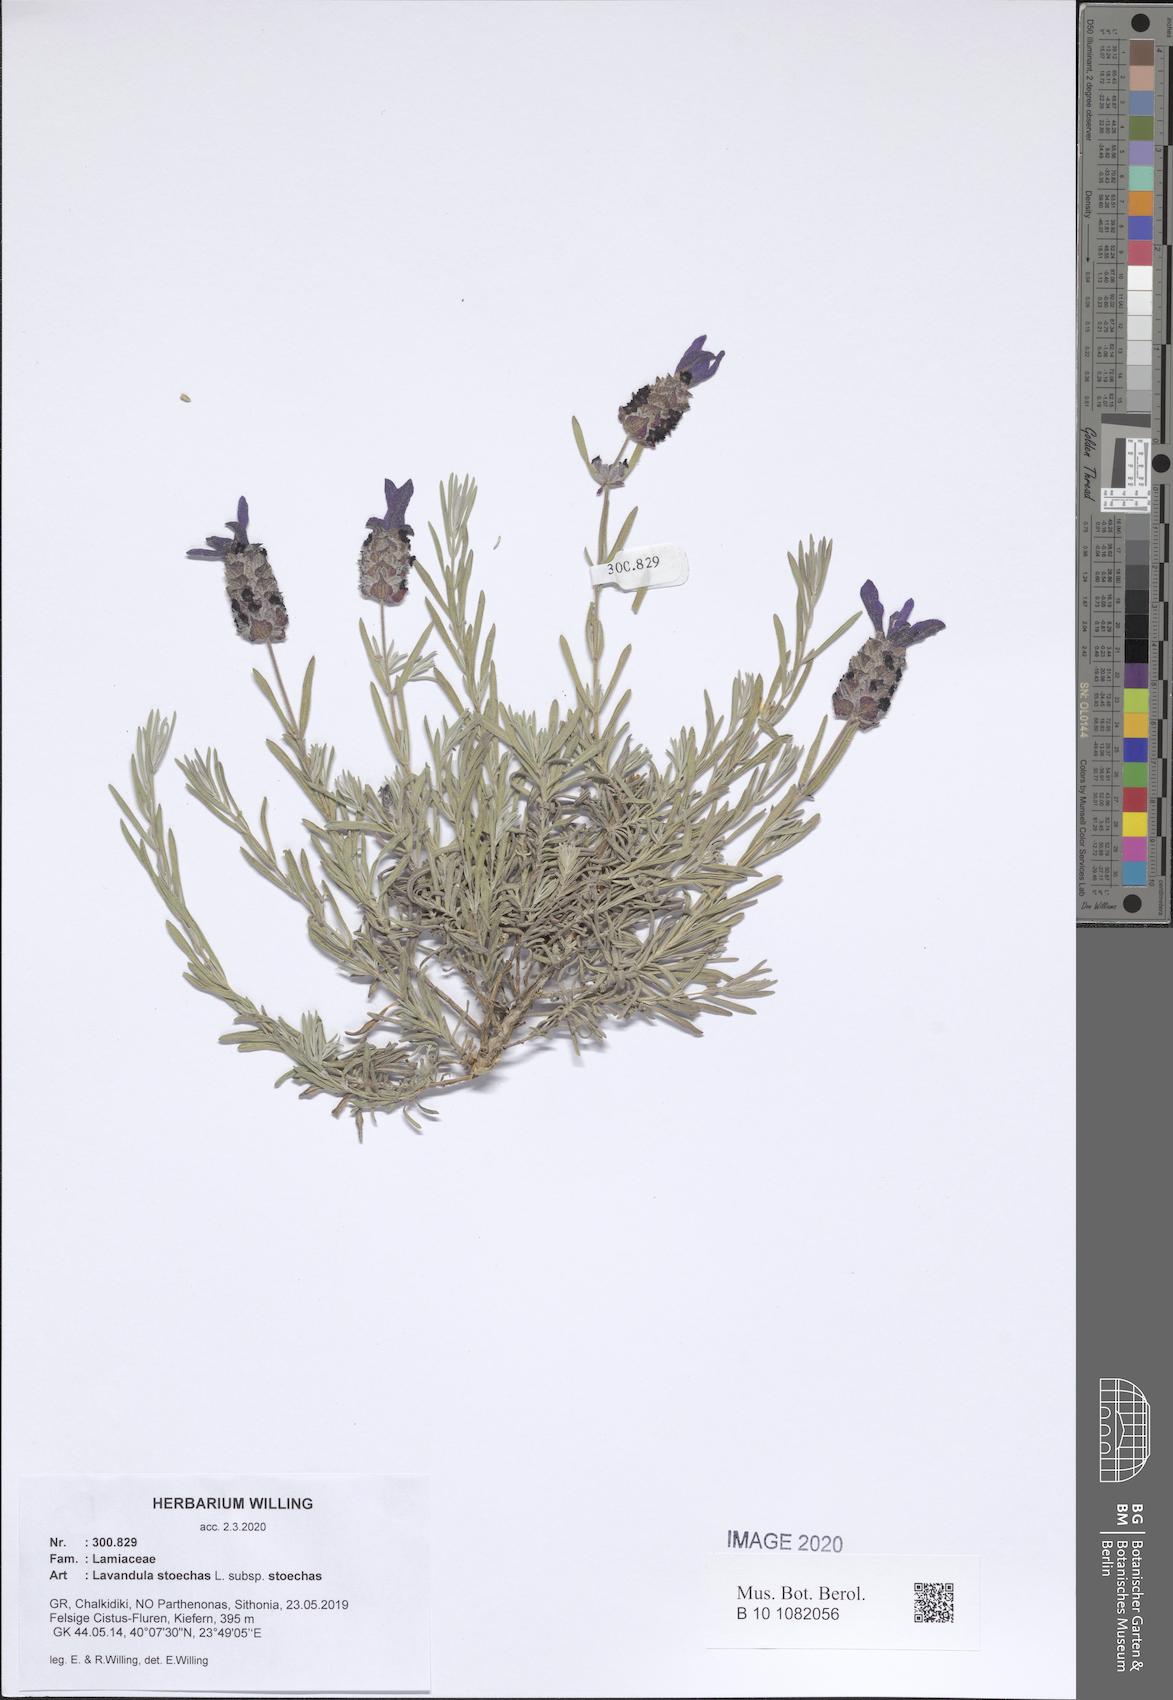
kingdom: Plantae
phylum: Tracheophyta
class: Magnoliopsida
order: Lamiales
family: Lamiaceae
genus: Lavandula
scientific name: Lavandula stoechas
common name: French lavender
